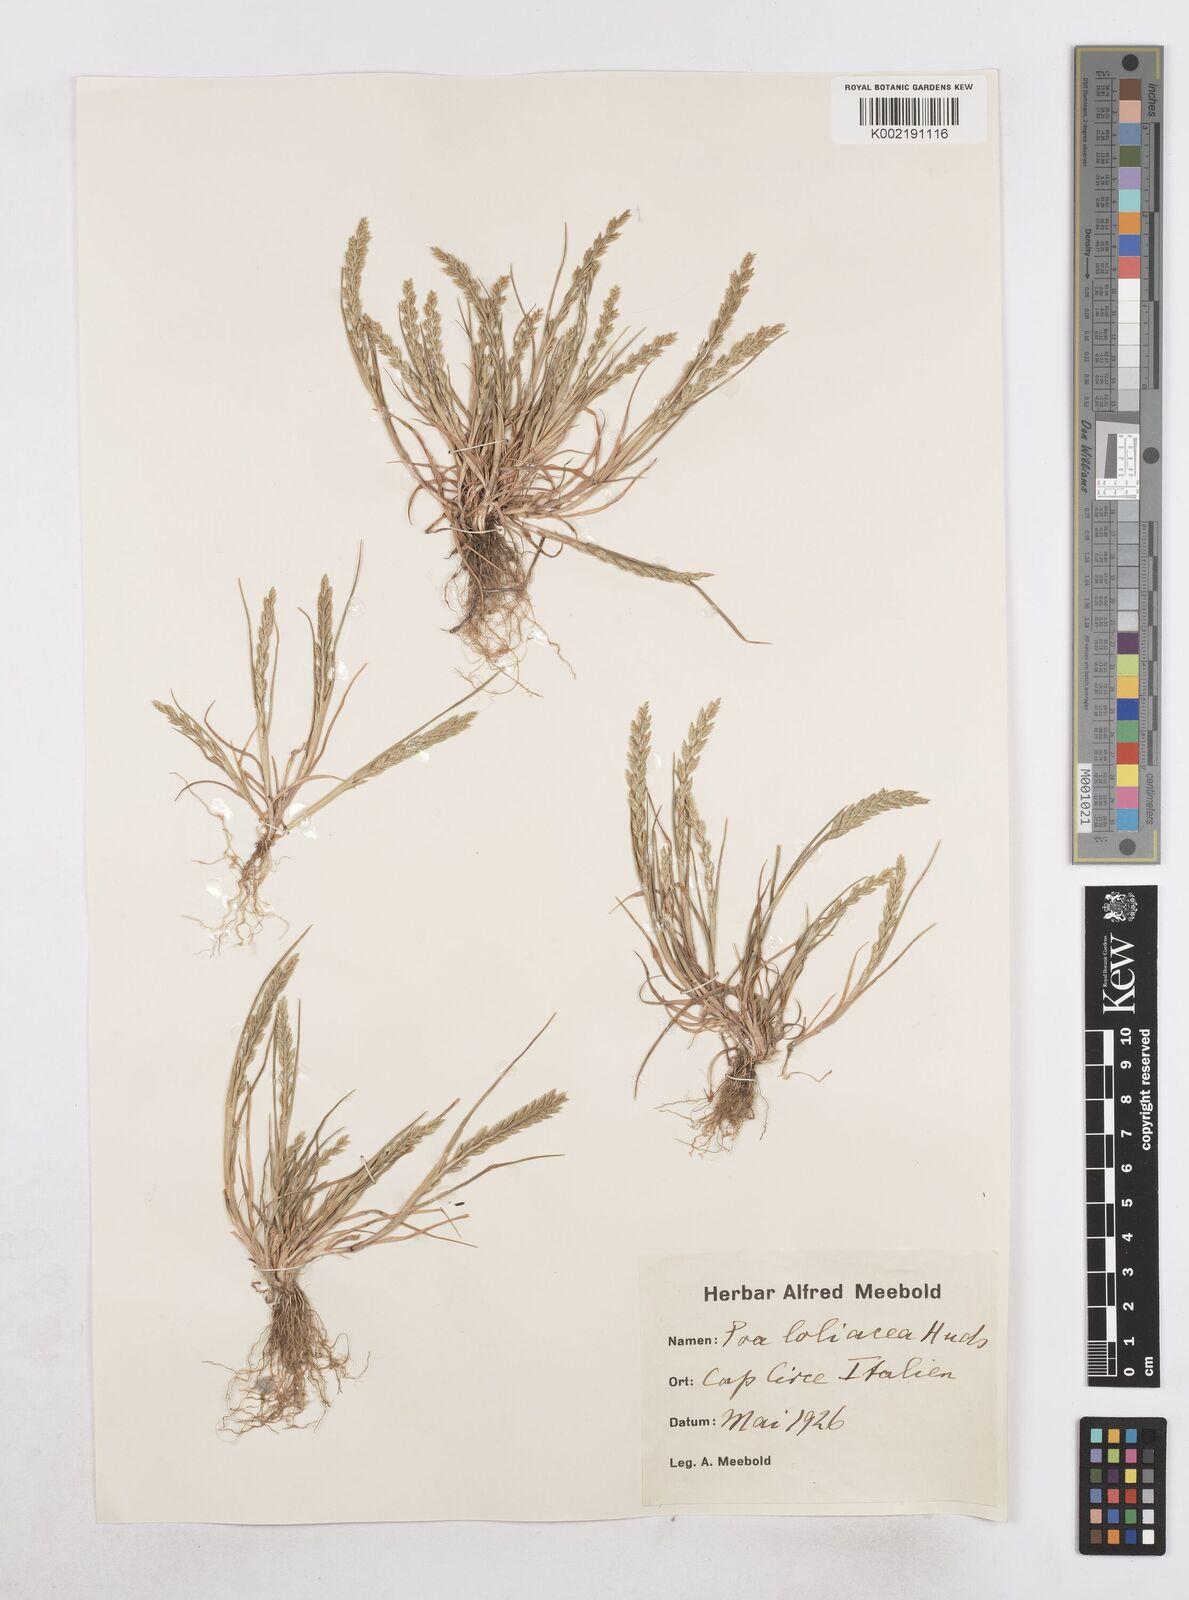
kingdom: Plantae
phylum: Tracheophyta
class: Liliopsida
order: Poales
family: Poaceae
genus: Catapodium
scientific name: Catapodium marinum
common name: Sea fern-grass
